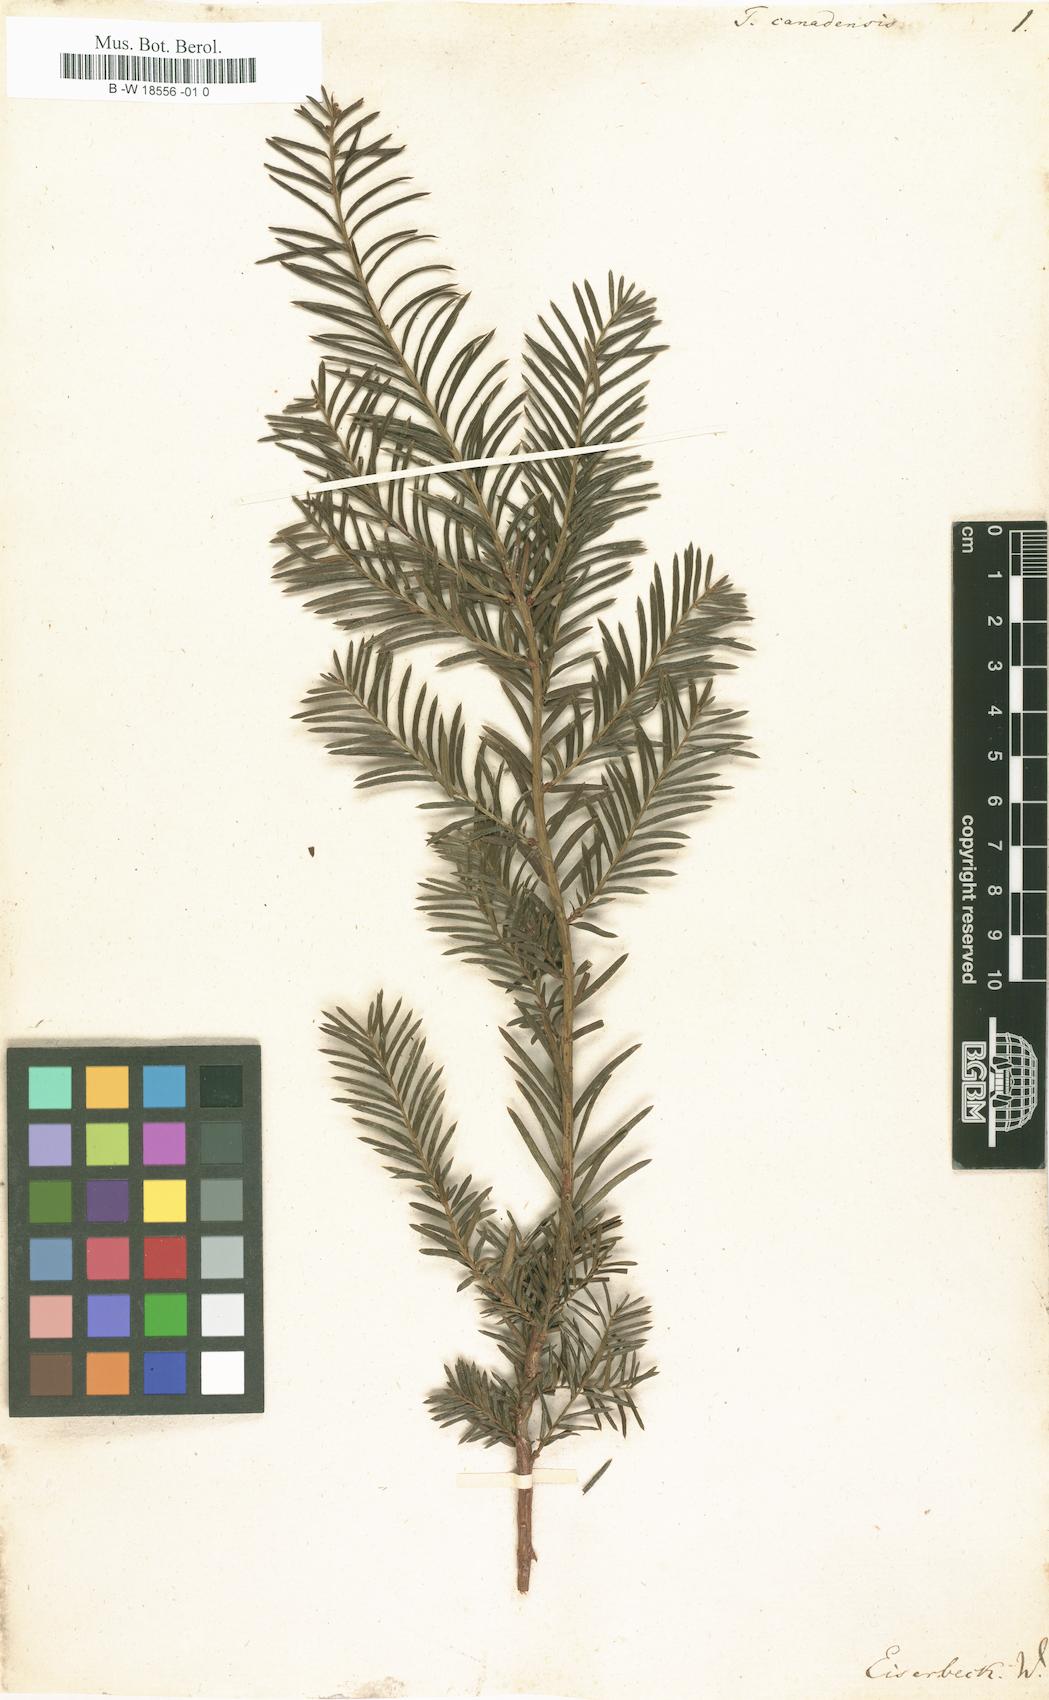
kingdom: Plantae
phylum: Tracheophyta
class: Pinopsida
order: Pinales
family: Taxaceae
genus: Taxus
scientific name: Taxus canadensis
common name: American yew
